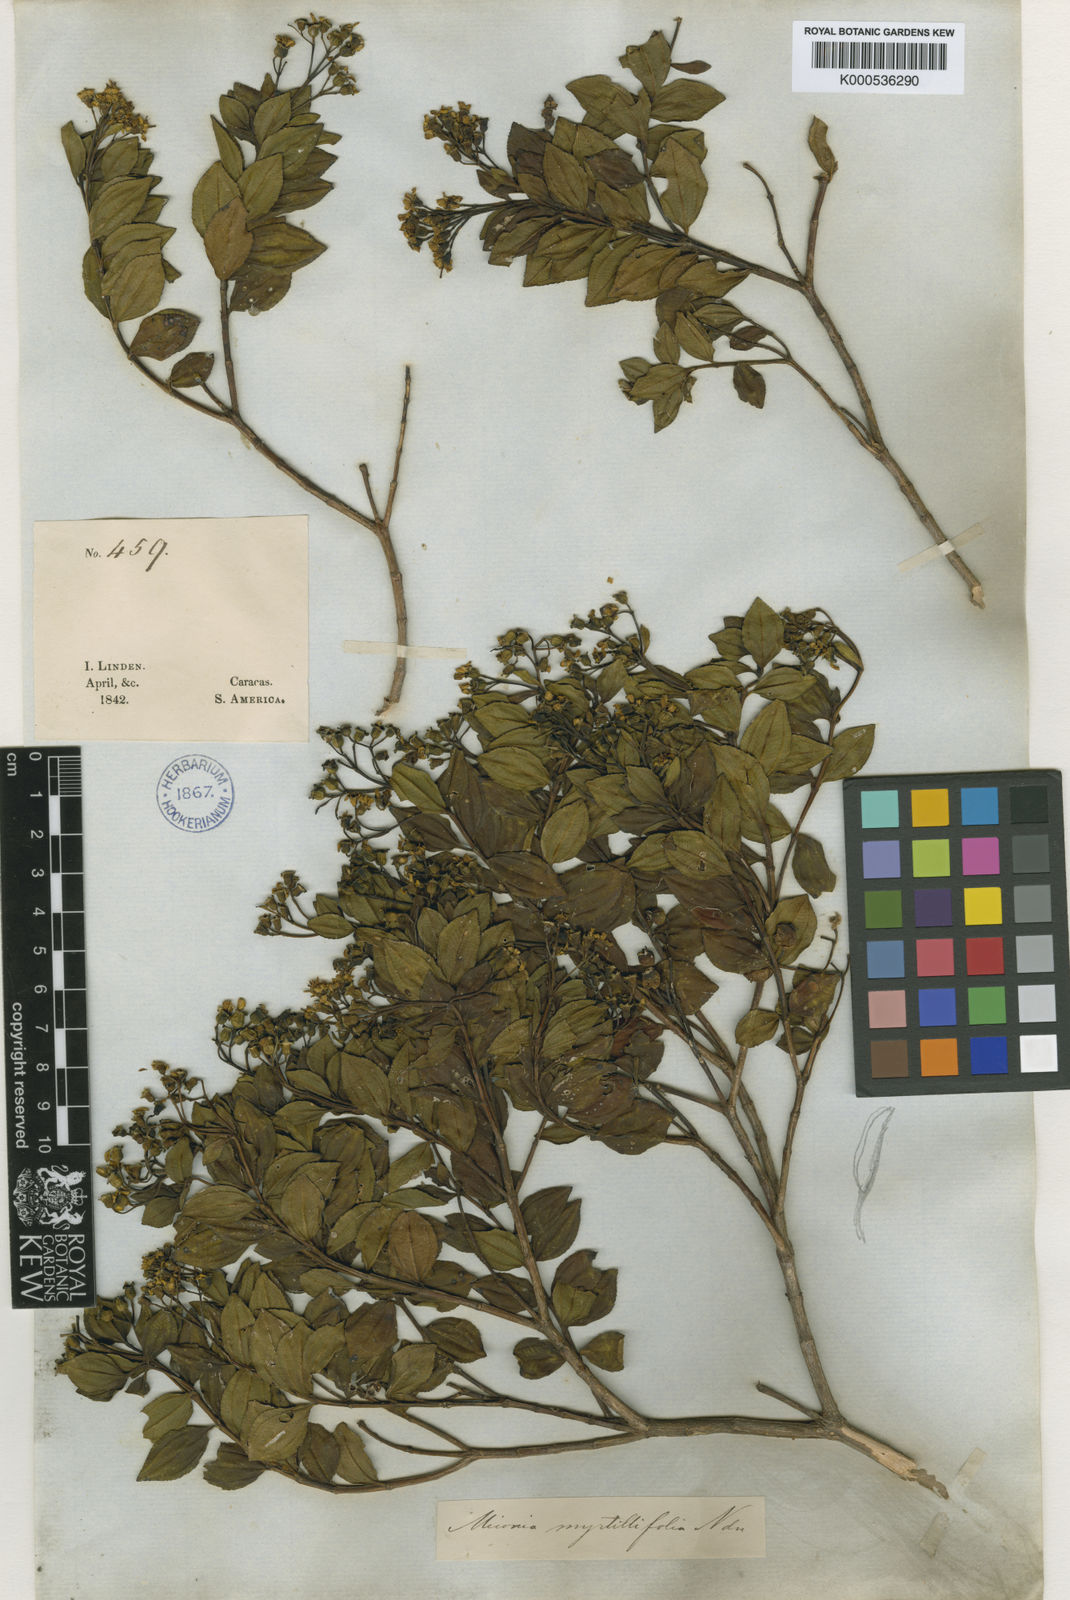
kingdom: Plantae
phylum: Tracheophyta
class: Magnoliopsida
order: Myrtales
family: Melastomataceae
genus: Miconia
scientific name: Miconia myrtillifolia
